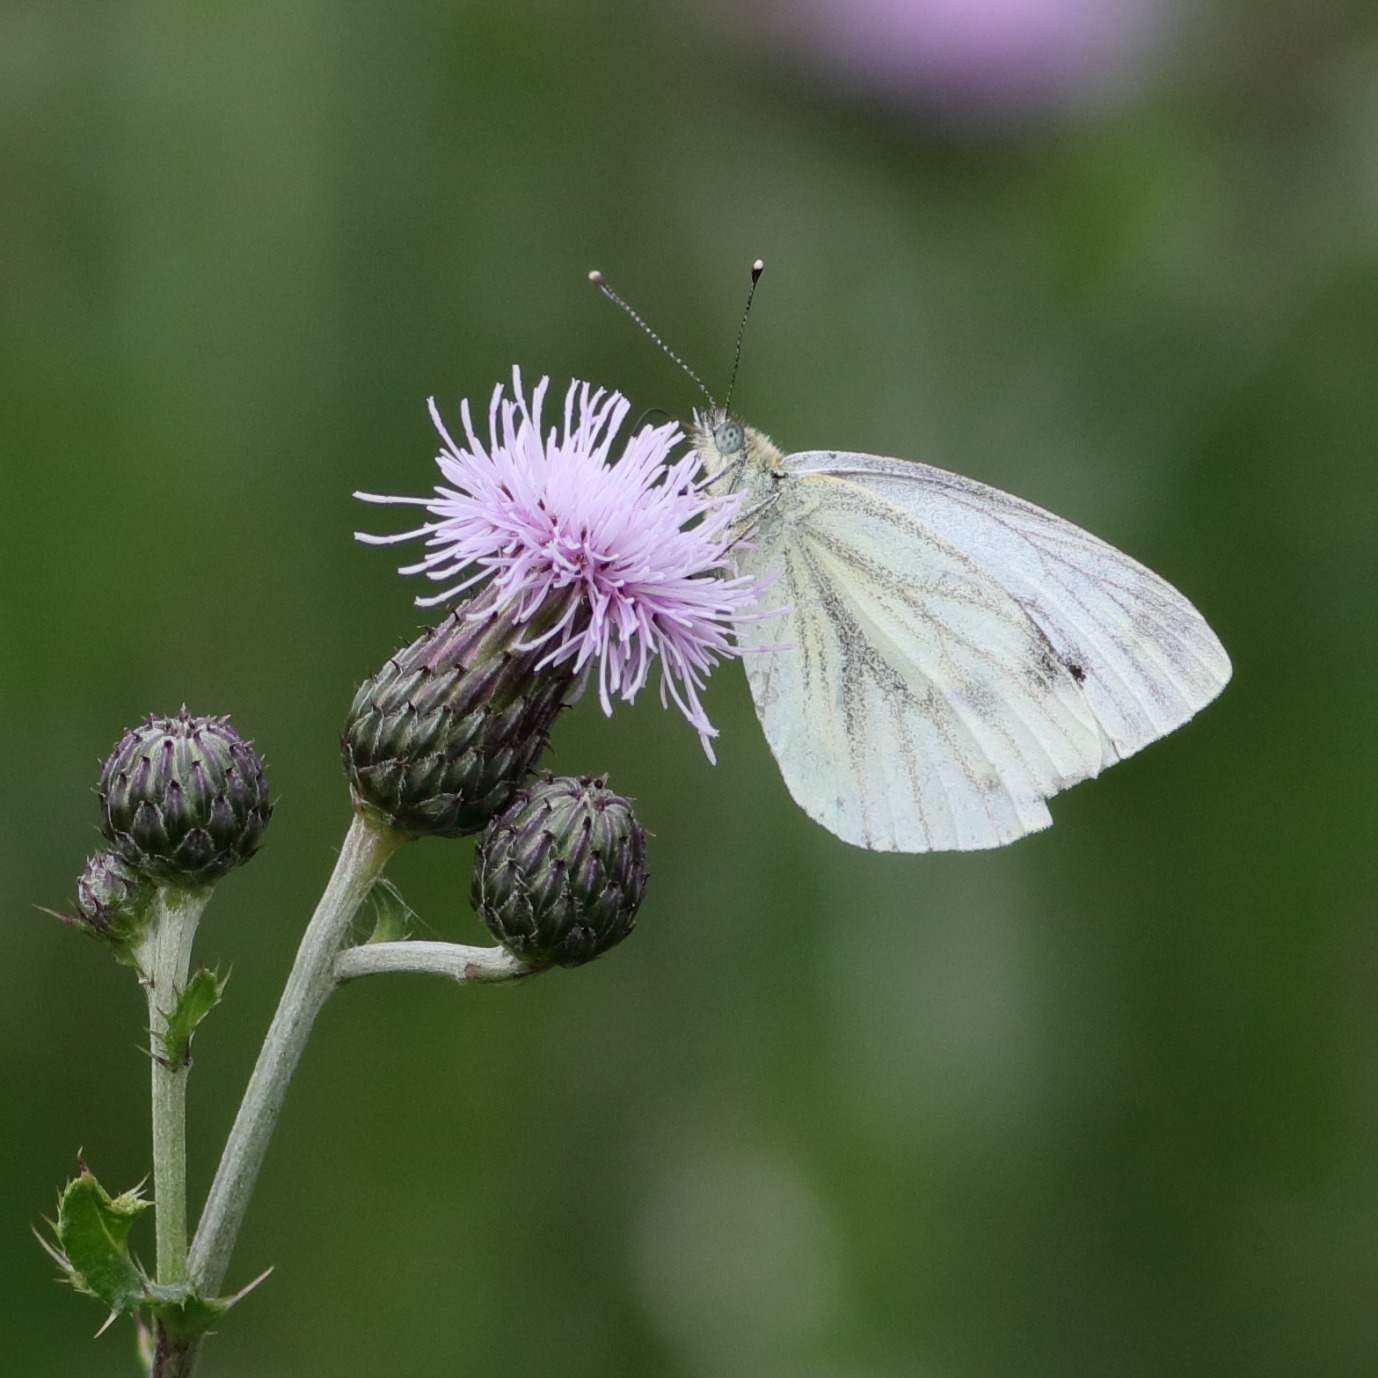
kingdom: Animalia
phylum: Arthropoda
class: Insecta
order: Lepidoptera
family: Pieridae
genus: Pieris
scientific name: Pieris napi
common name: Grønåret kålsommerfugl
